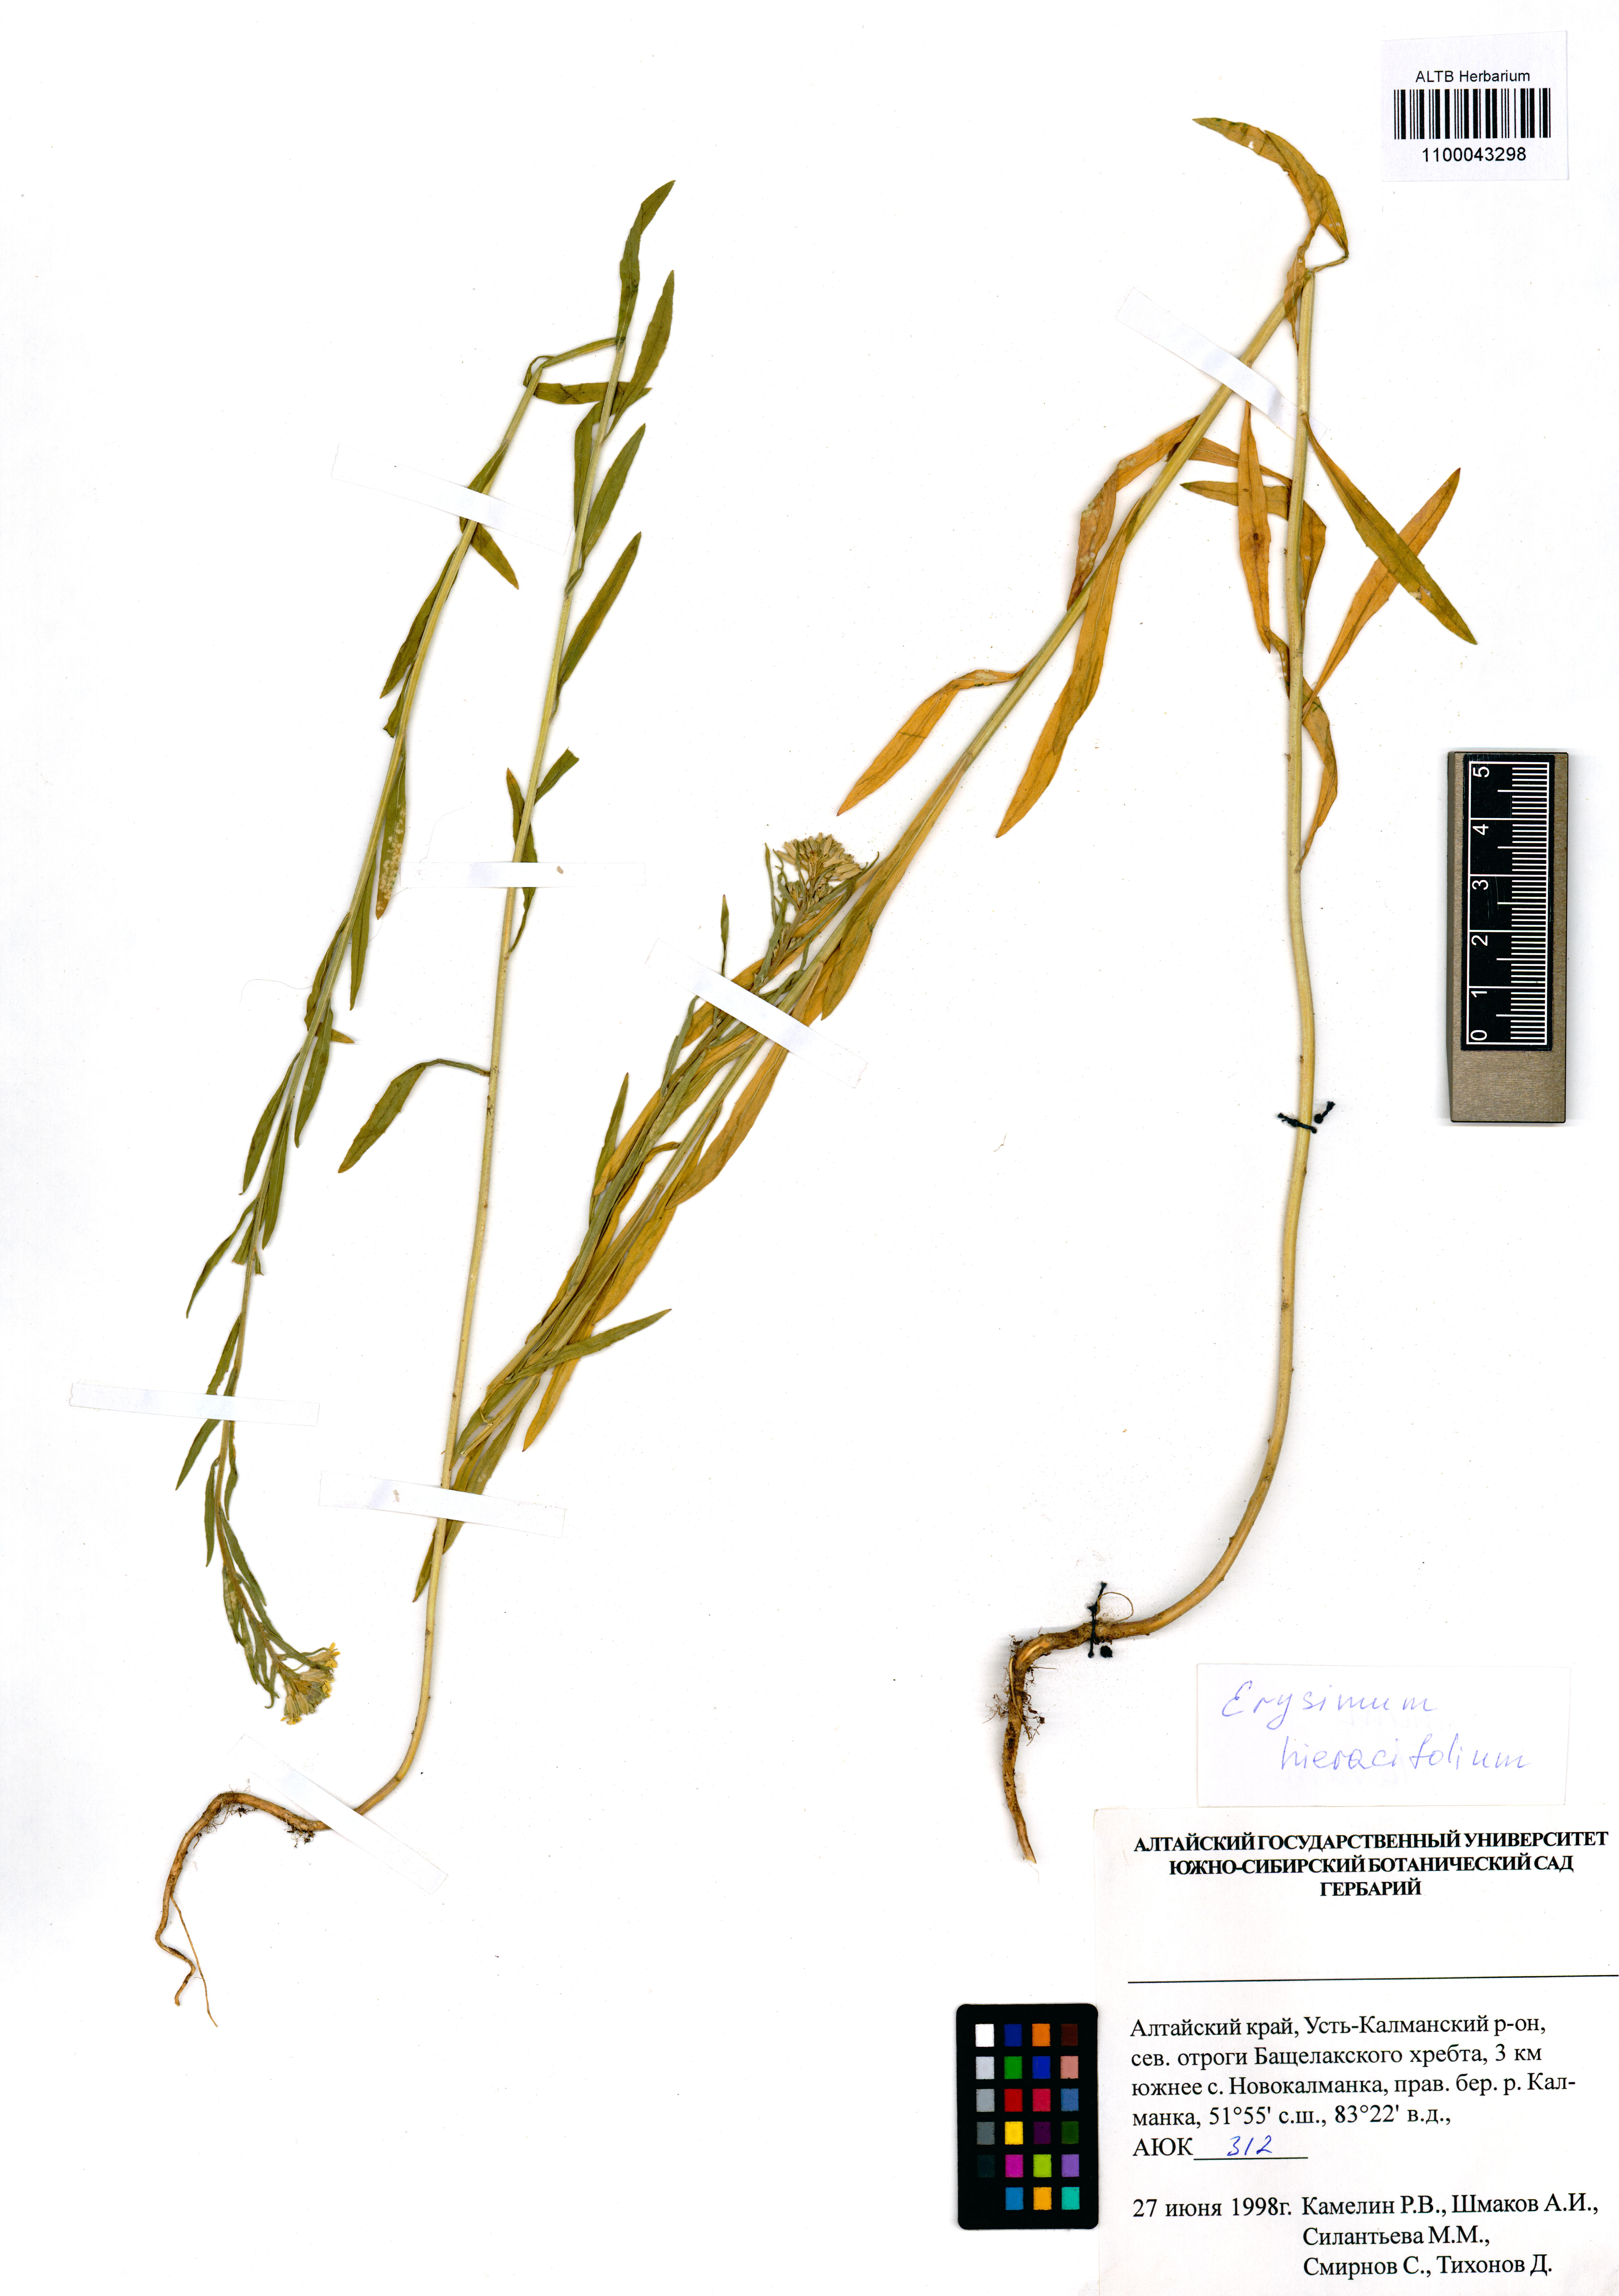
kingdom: Plantae
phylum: Tracheophyta
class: Magnoliopsida
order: Brassicales
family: Brassicaceae
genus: Erysimum
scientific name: Erysimum hieraciifolium
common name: European wallflower
